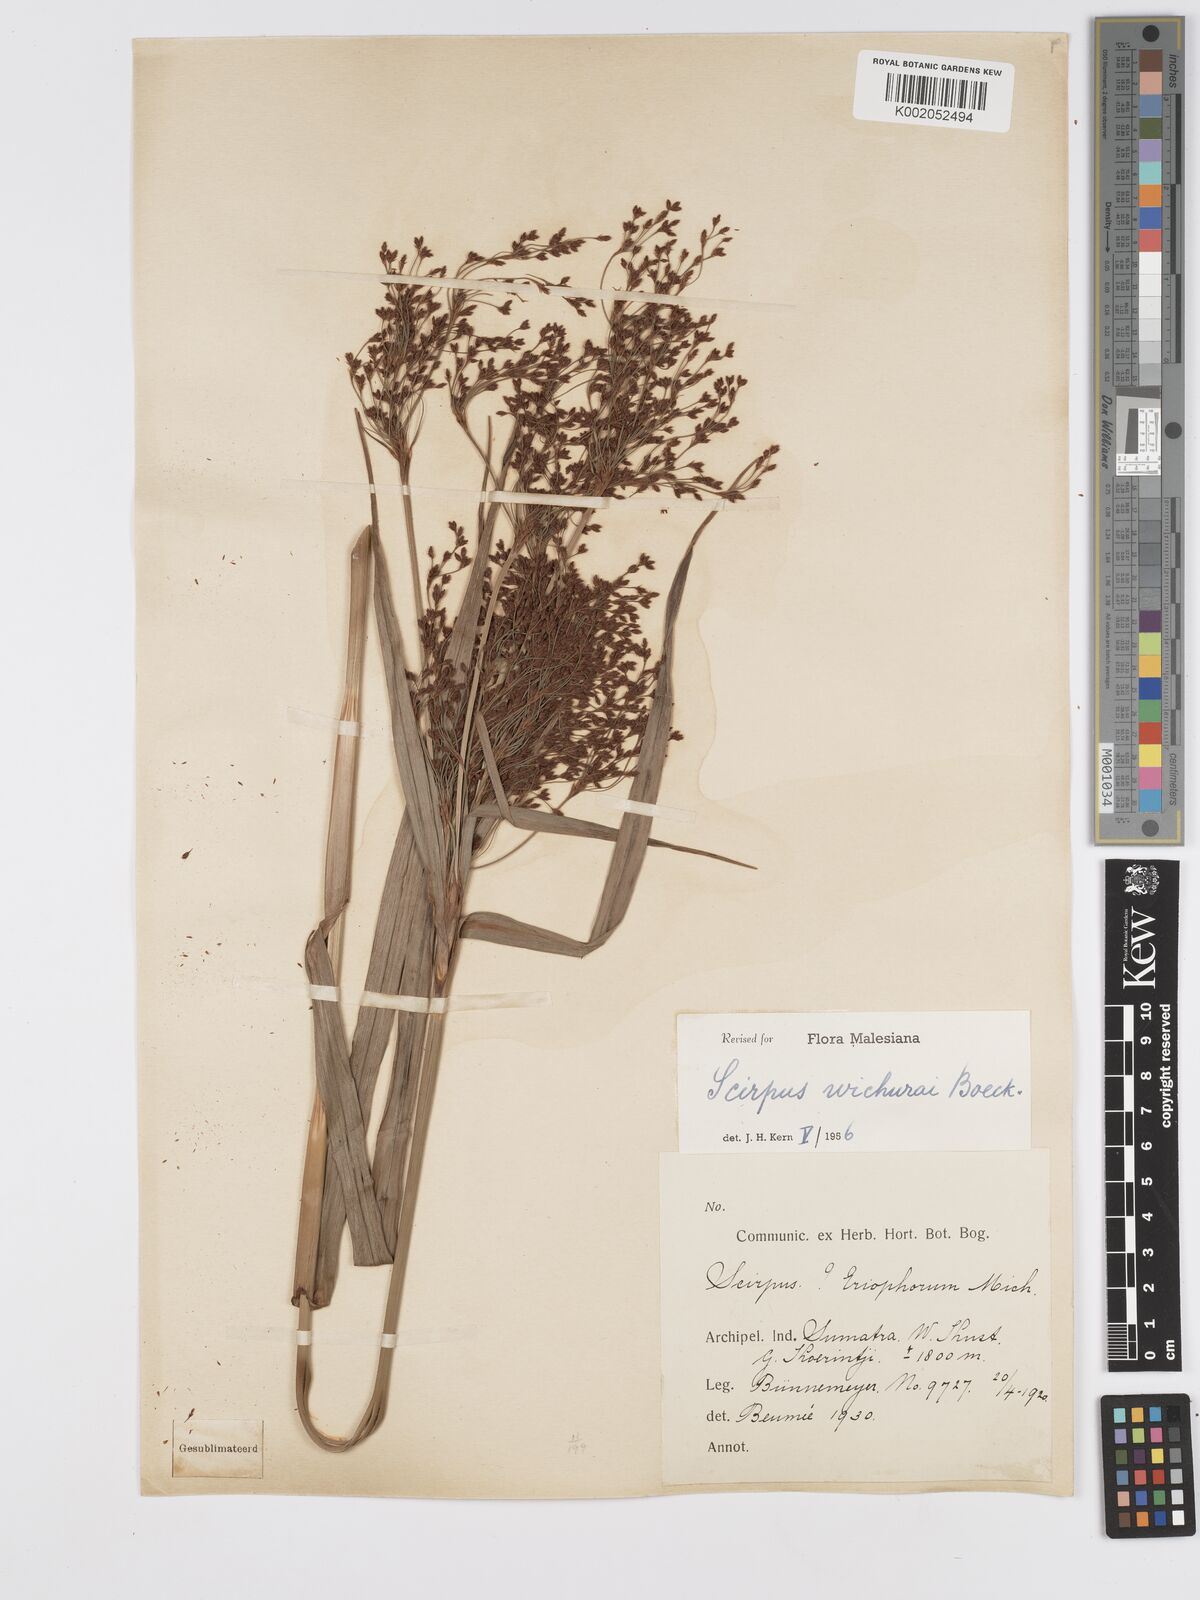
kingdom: Plantae
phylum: Tracheophyta
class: Liliopsida
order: Poales
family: Cyperaceae
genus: Scirpus
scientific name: Scirpus lineatus
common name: Drooping bulrush
